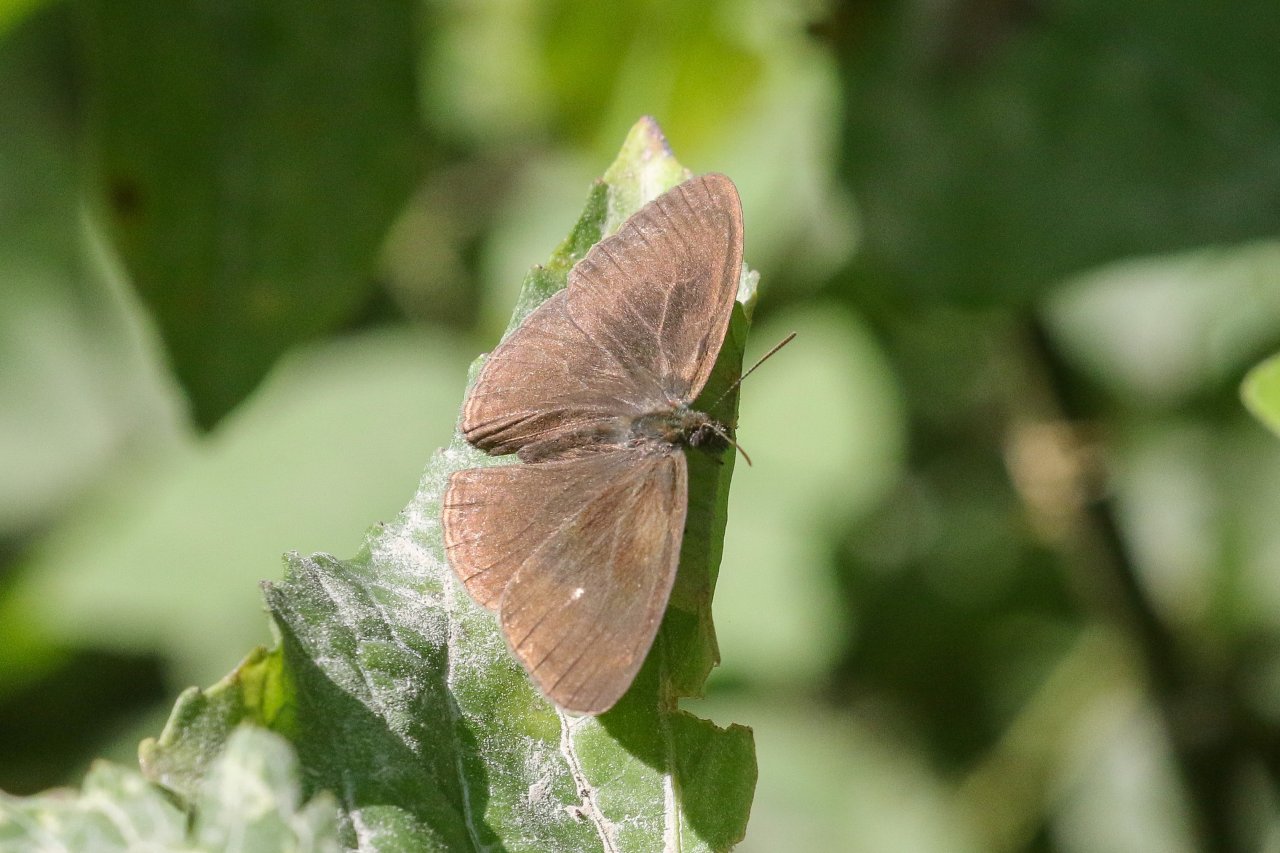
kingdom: Animalia
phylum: Arthropoda
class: Insecta
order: Lepidoptera
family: Nymphalidae
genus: Hermeuptychia
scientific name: Hermeuptychia hermes
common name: Carolina Satyr
